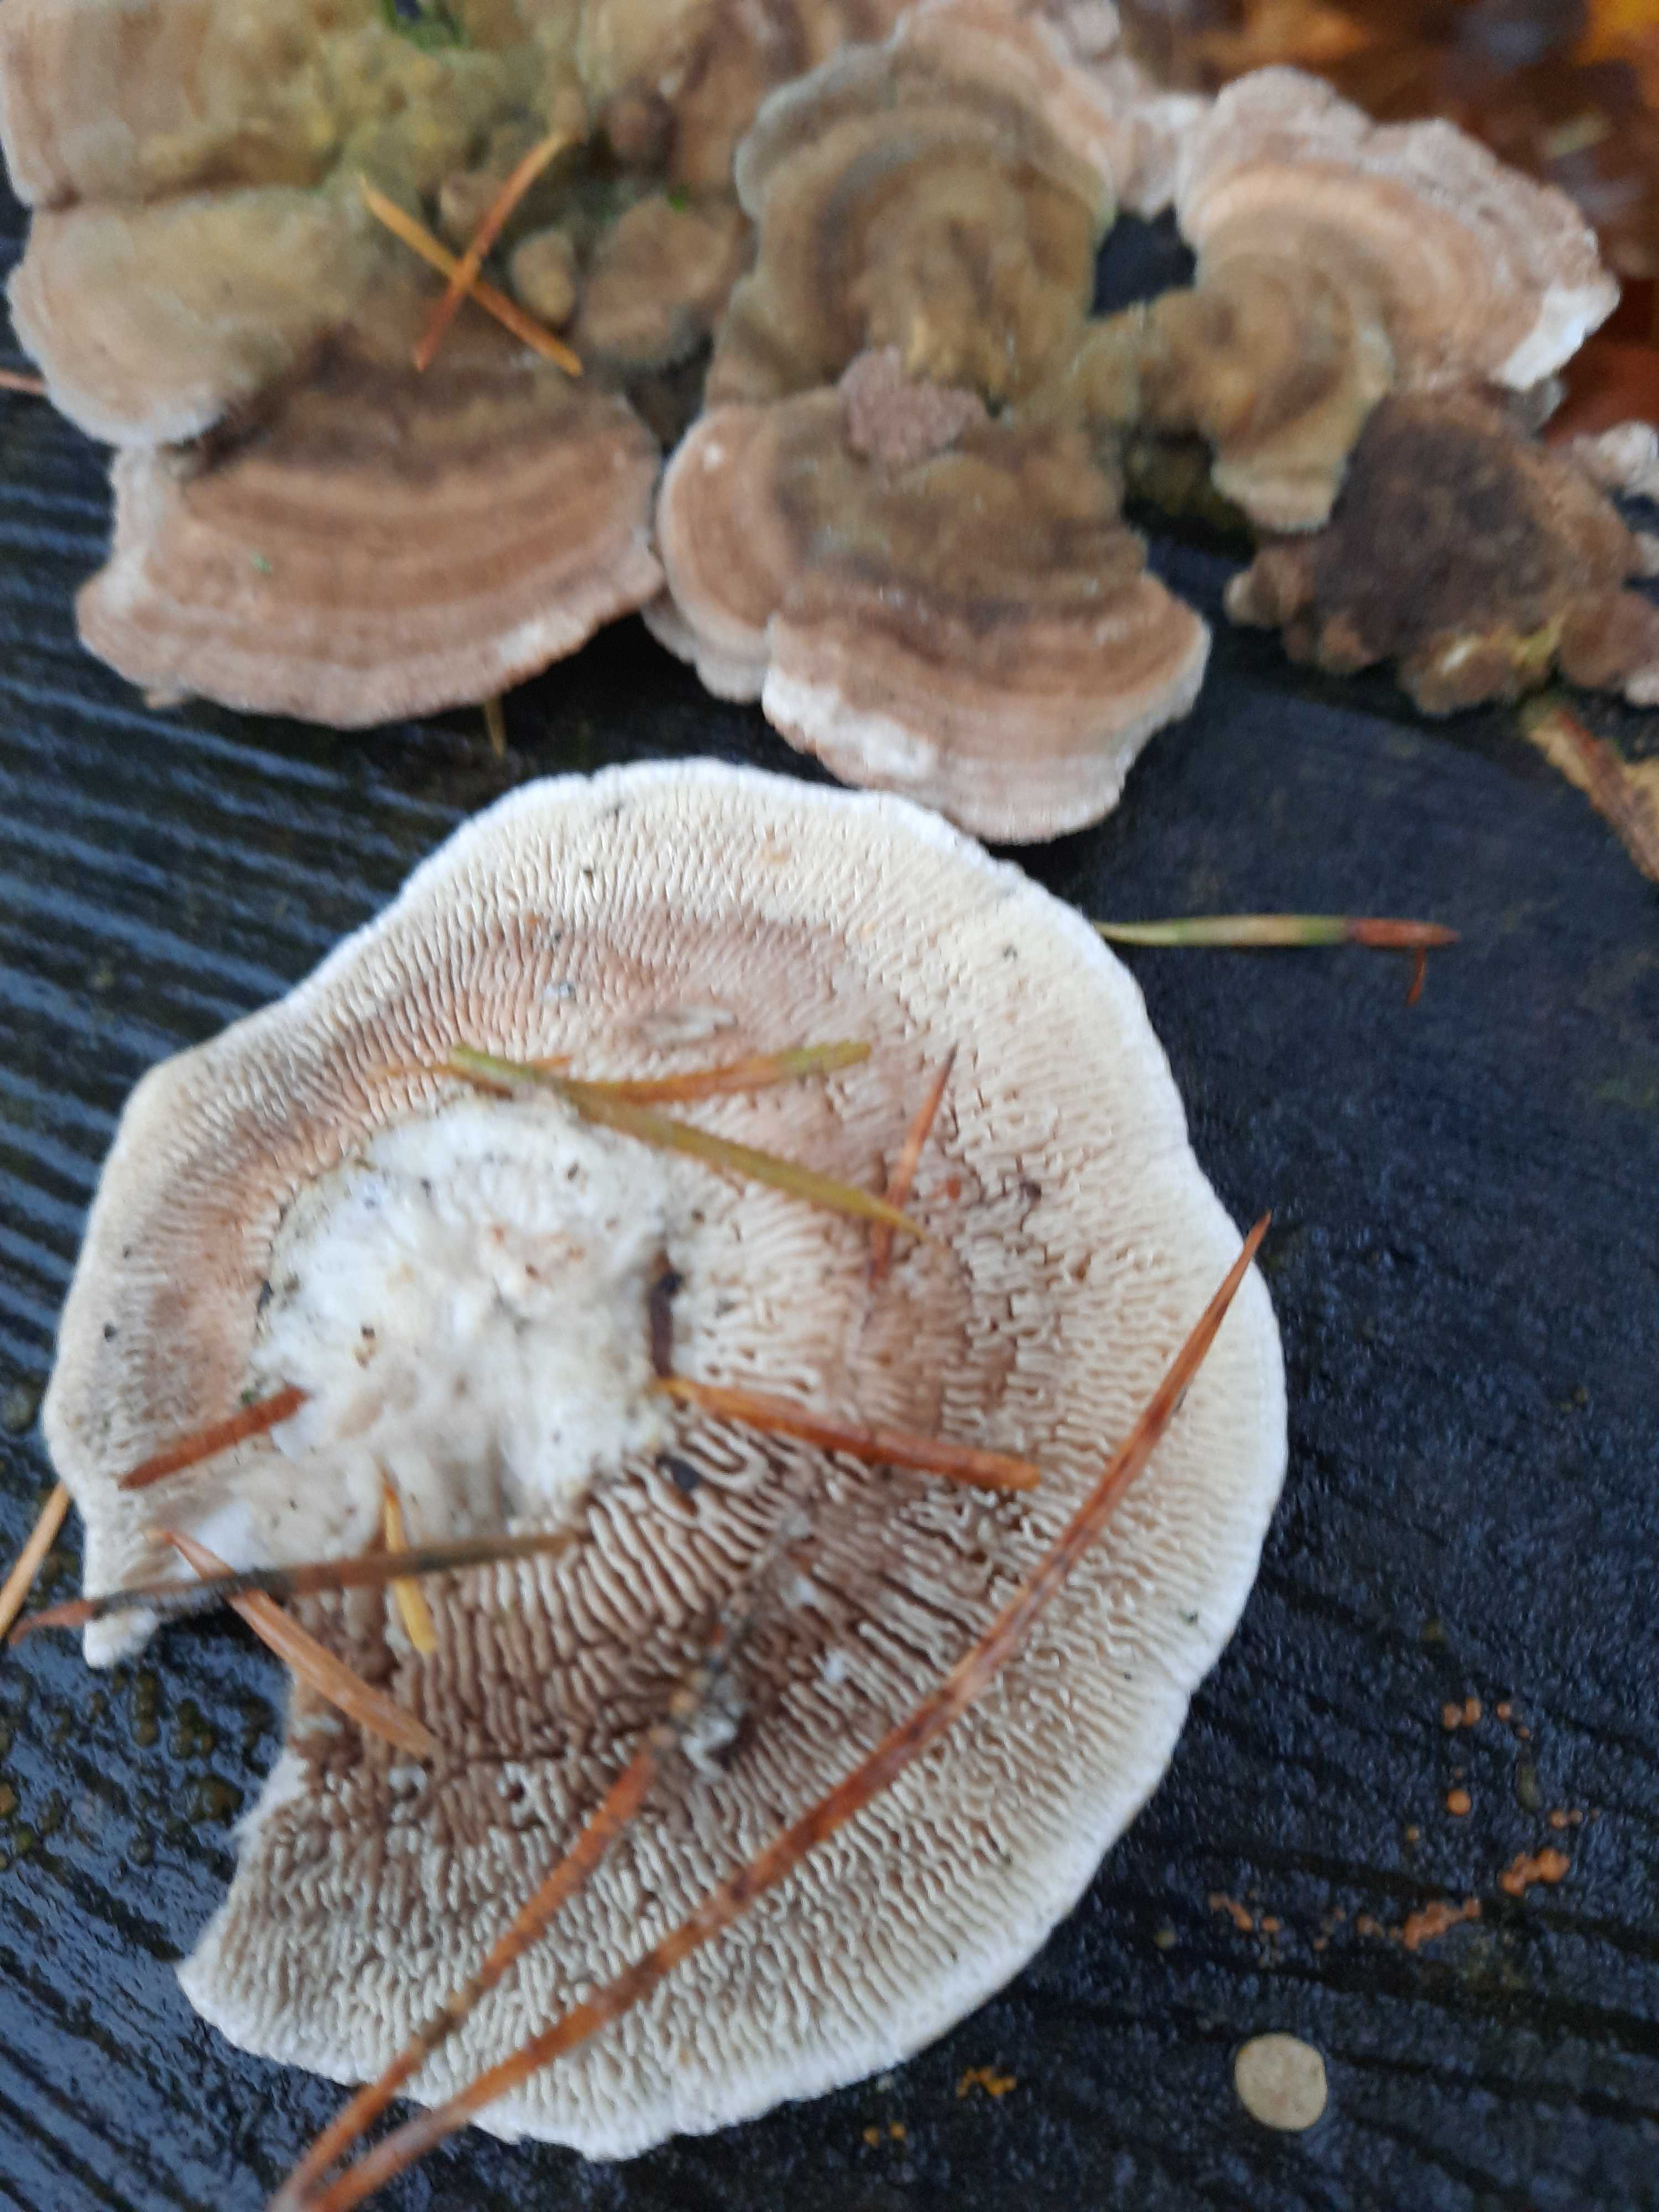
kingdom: Fungi
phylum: Basidiomycota
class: Agaricomycetes
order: Polyporales
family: Polyporaceae
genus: Lenzites
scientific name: Lenzites betulinus
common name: birke-læderporesvamp
